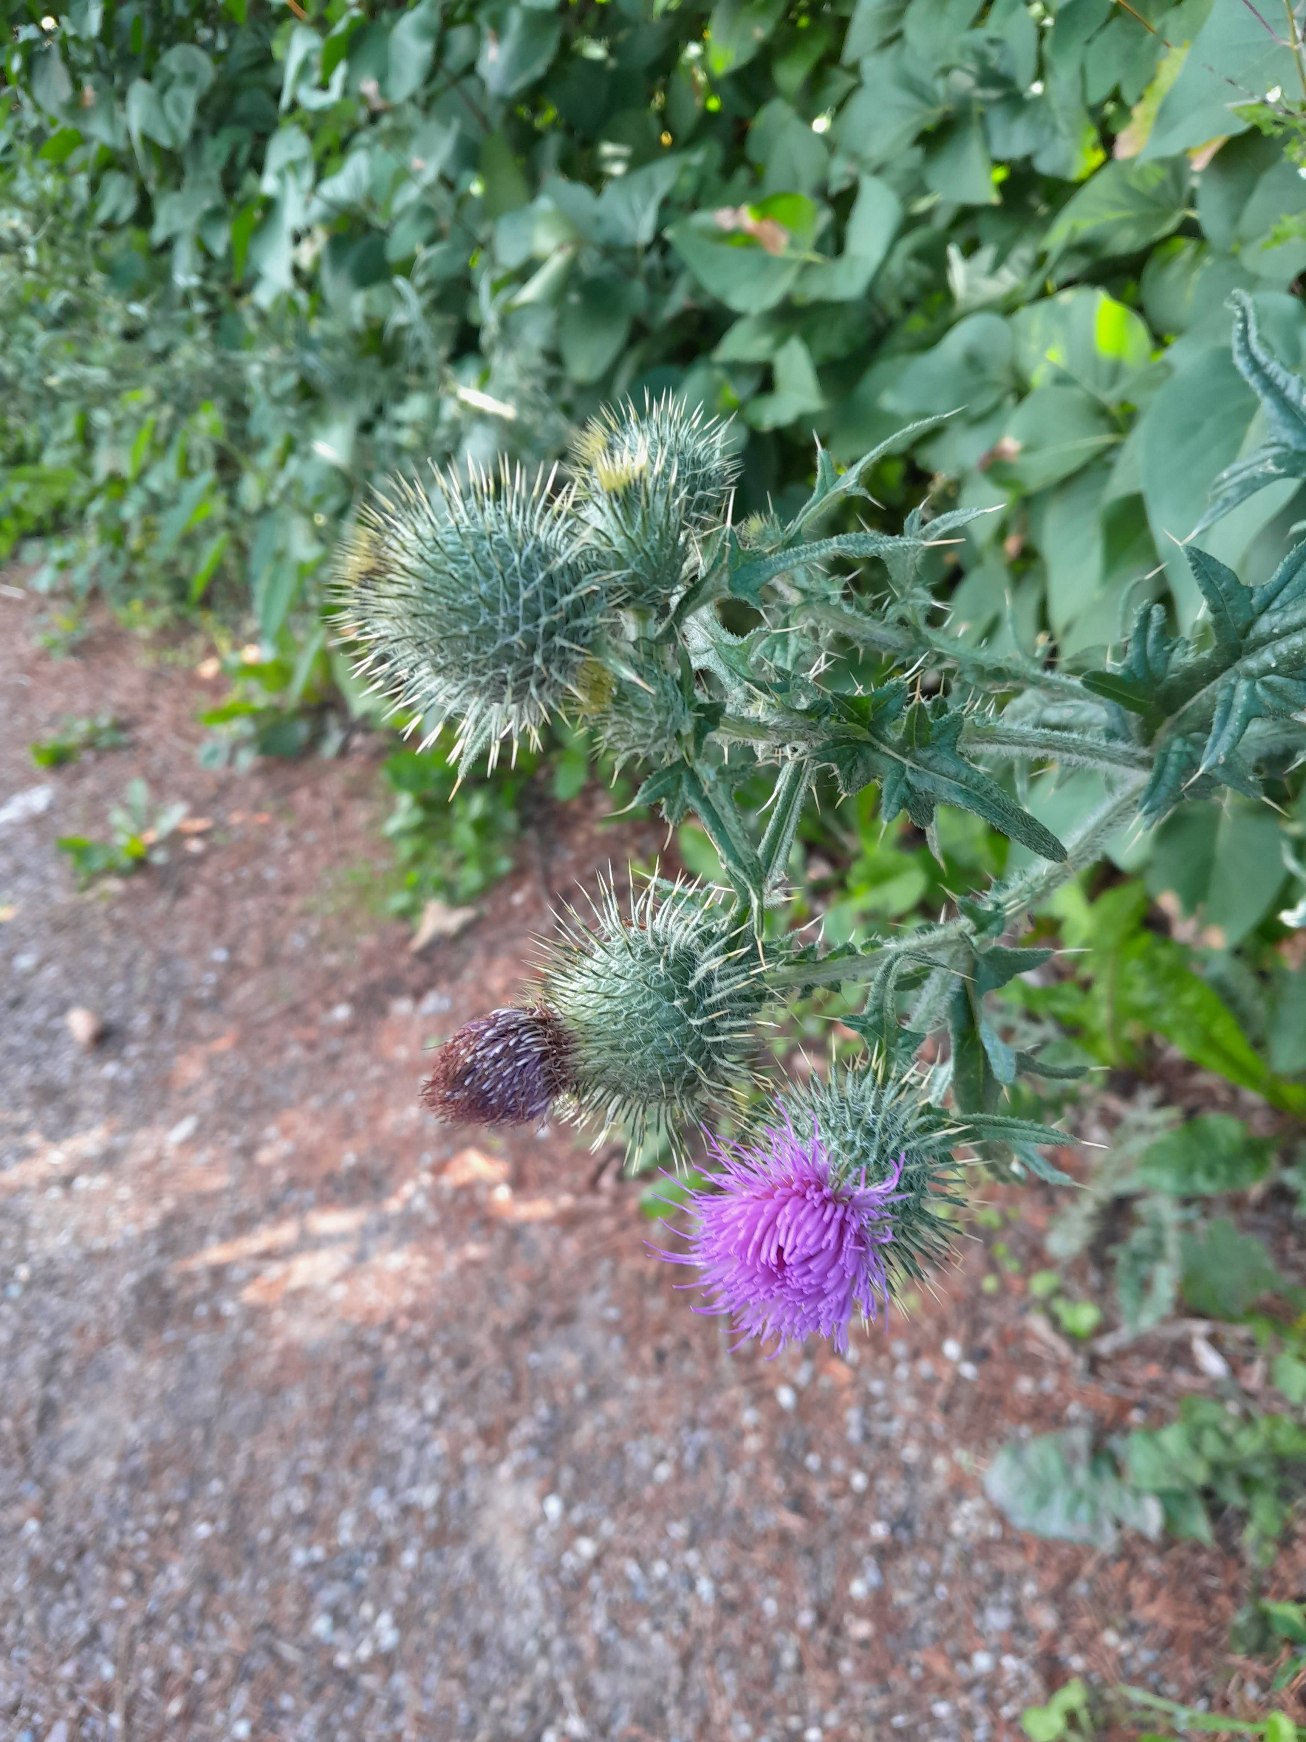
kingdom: Plantae
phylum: Tracheophyta
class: Magnoliopsida
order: Asterales
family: Asteraceae
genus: Cirsium
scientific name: Cirsium vulgare
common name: Horse-tidsel
